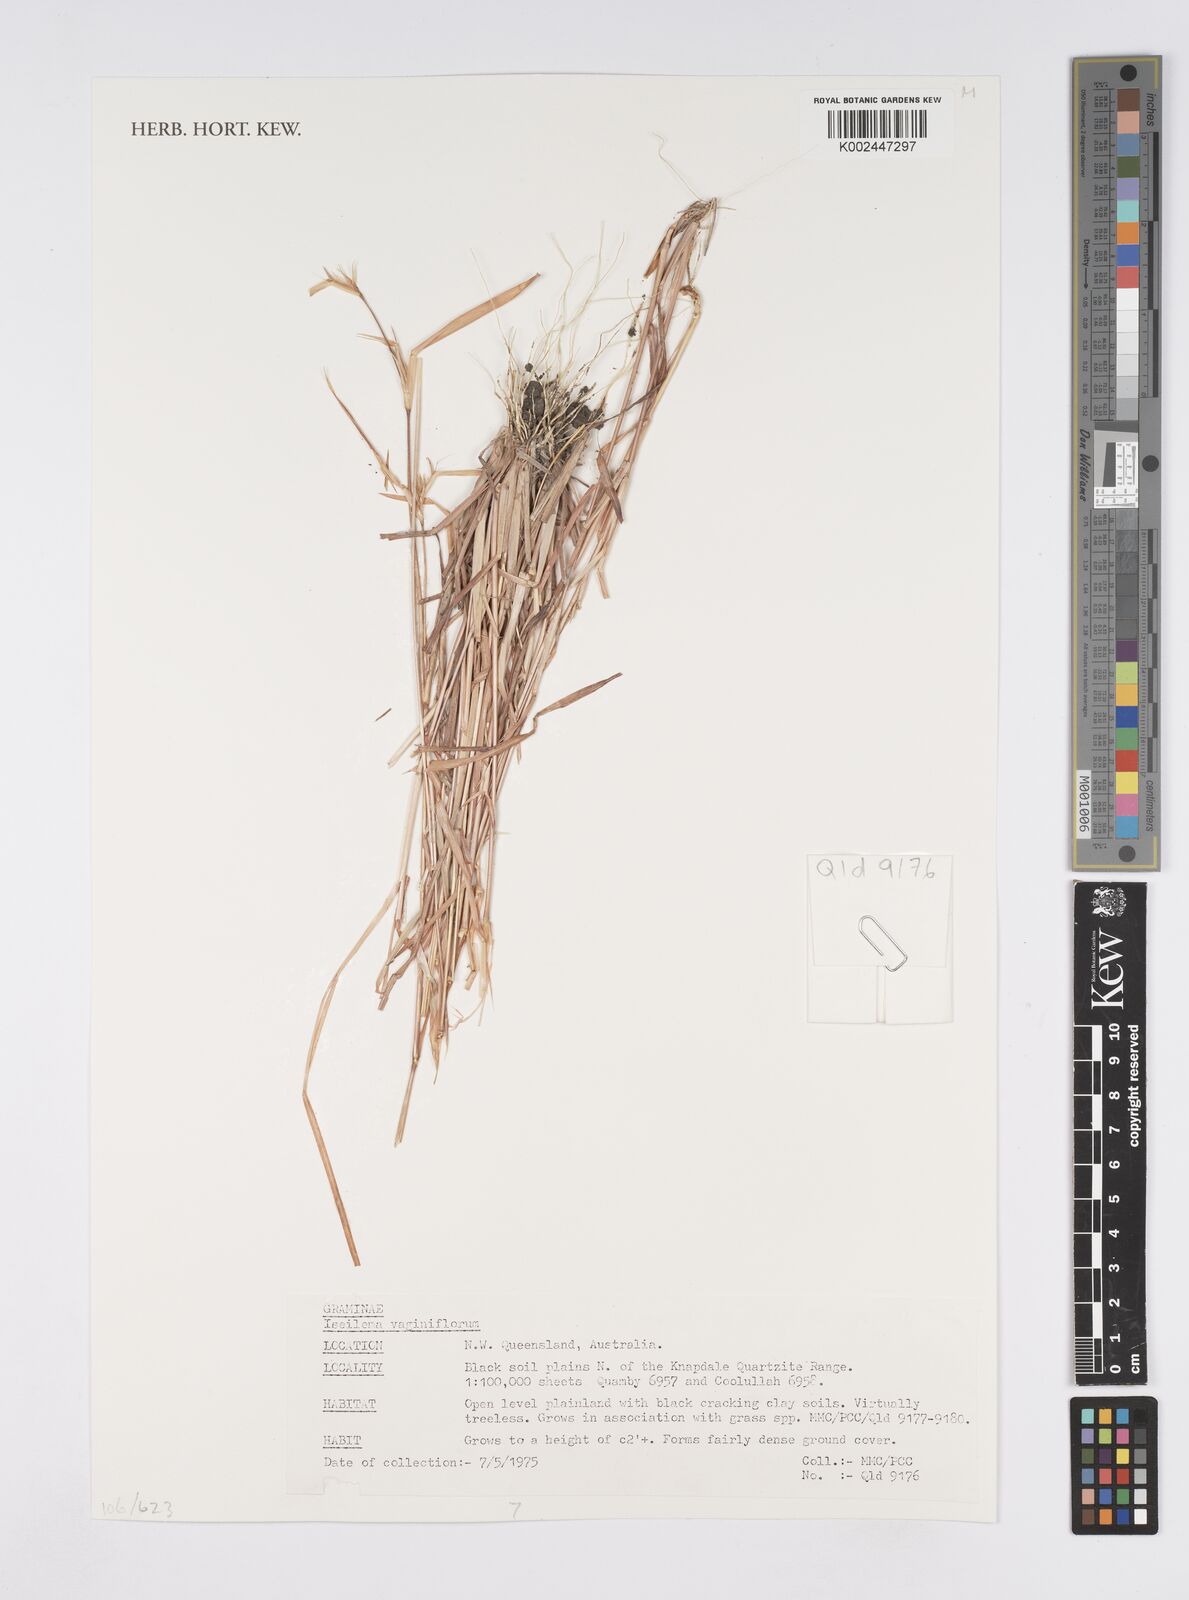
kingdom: Plantae
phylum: Tracheophyta
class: Liliopsida
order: Poales
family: Poaceae
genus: Iseilema
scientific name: Iseilema vaginiflorum
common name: Red flinders grass
